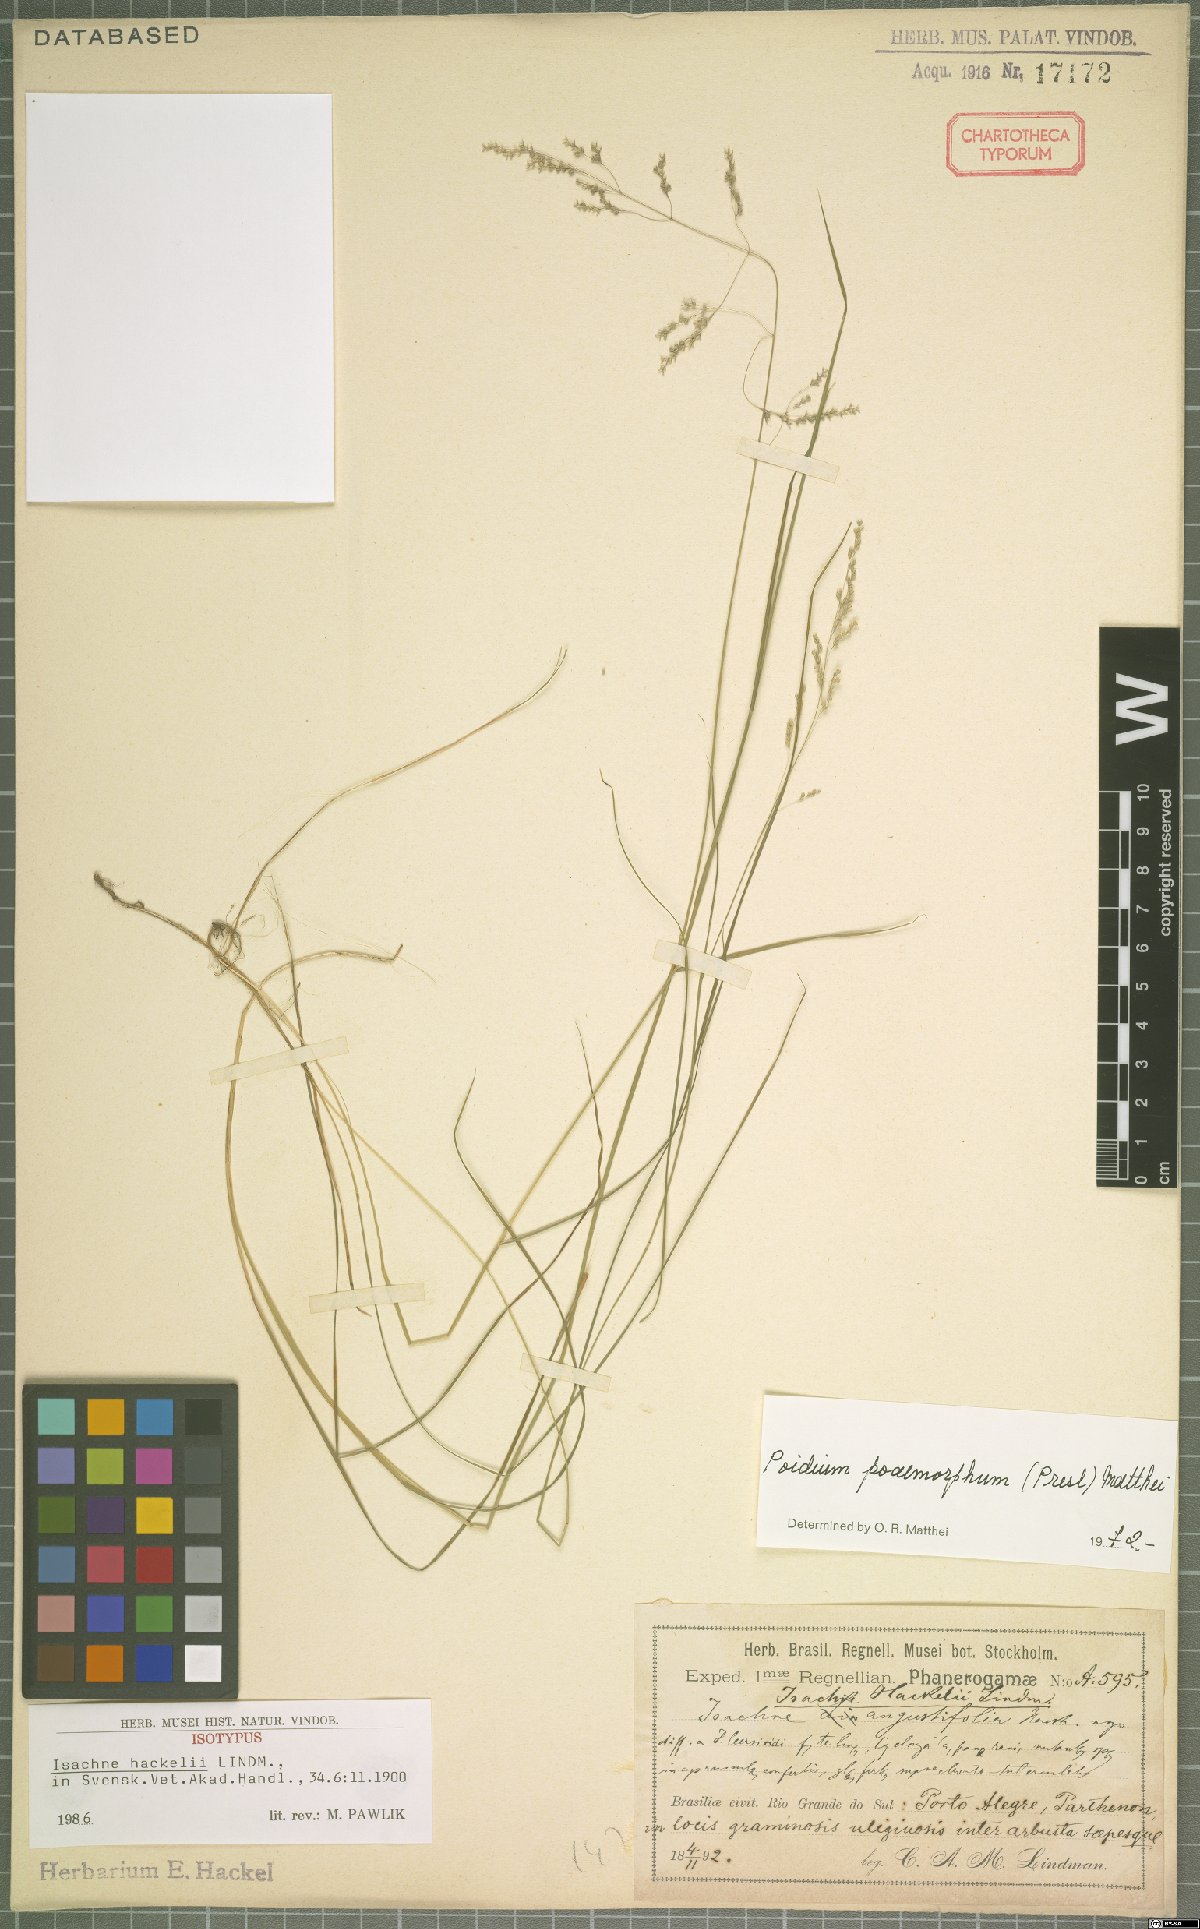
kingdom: Plantae
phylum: Tracheophyta
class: Liliopsida
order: Poales
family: Poaceae
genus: Microbriza
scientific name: Microbriza poimorpha
